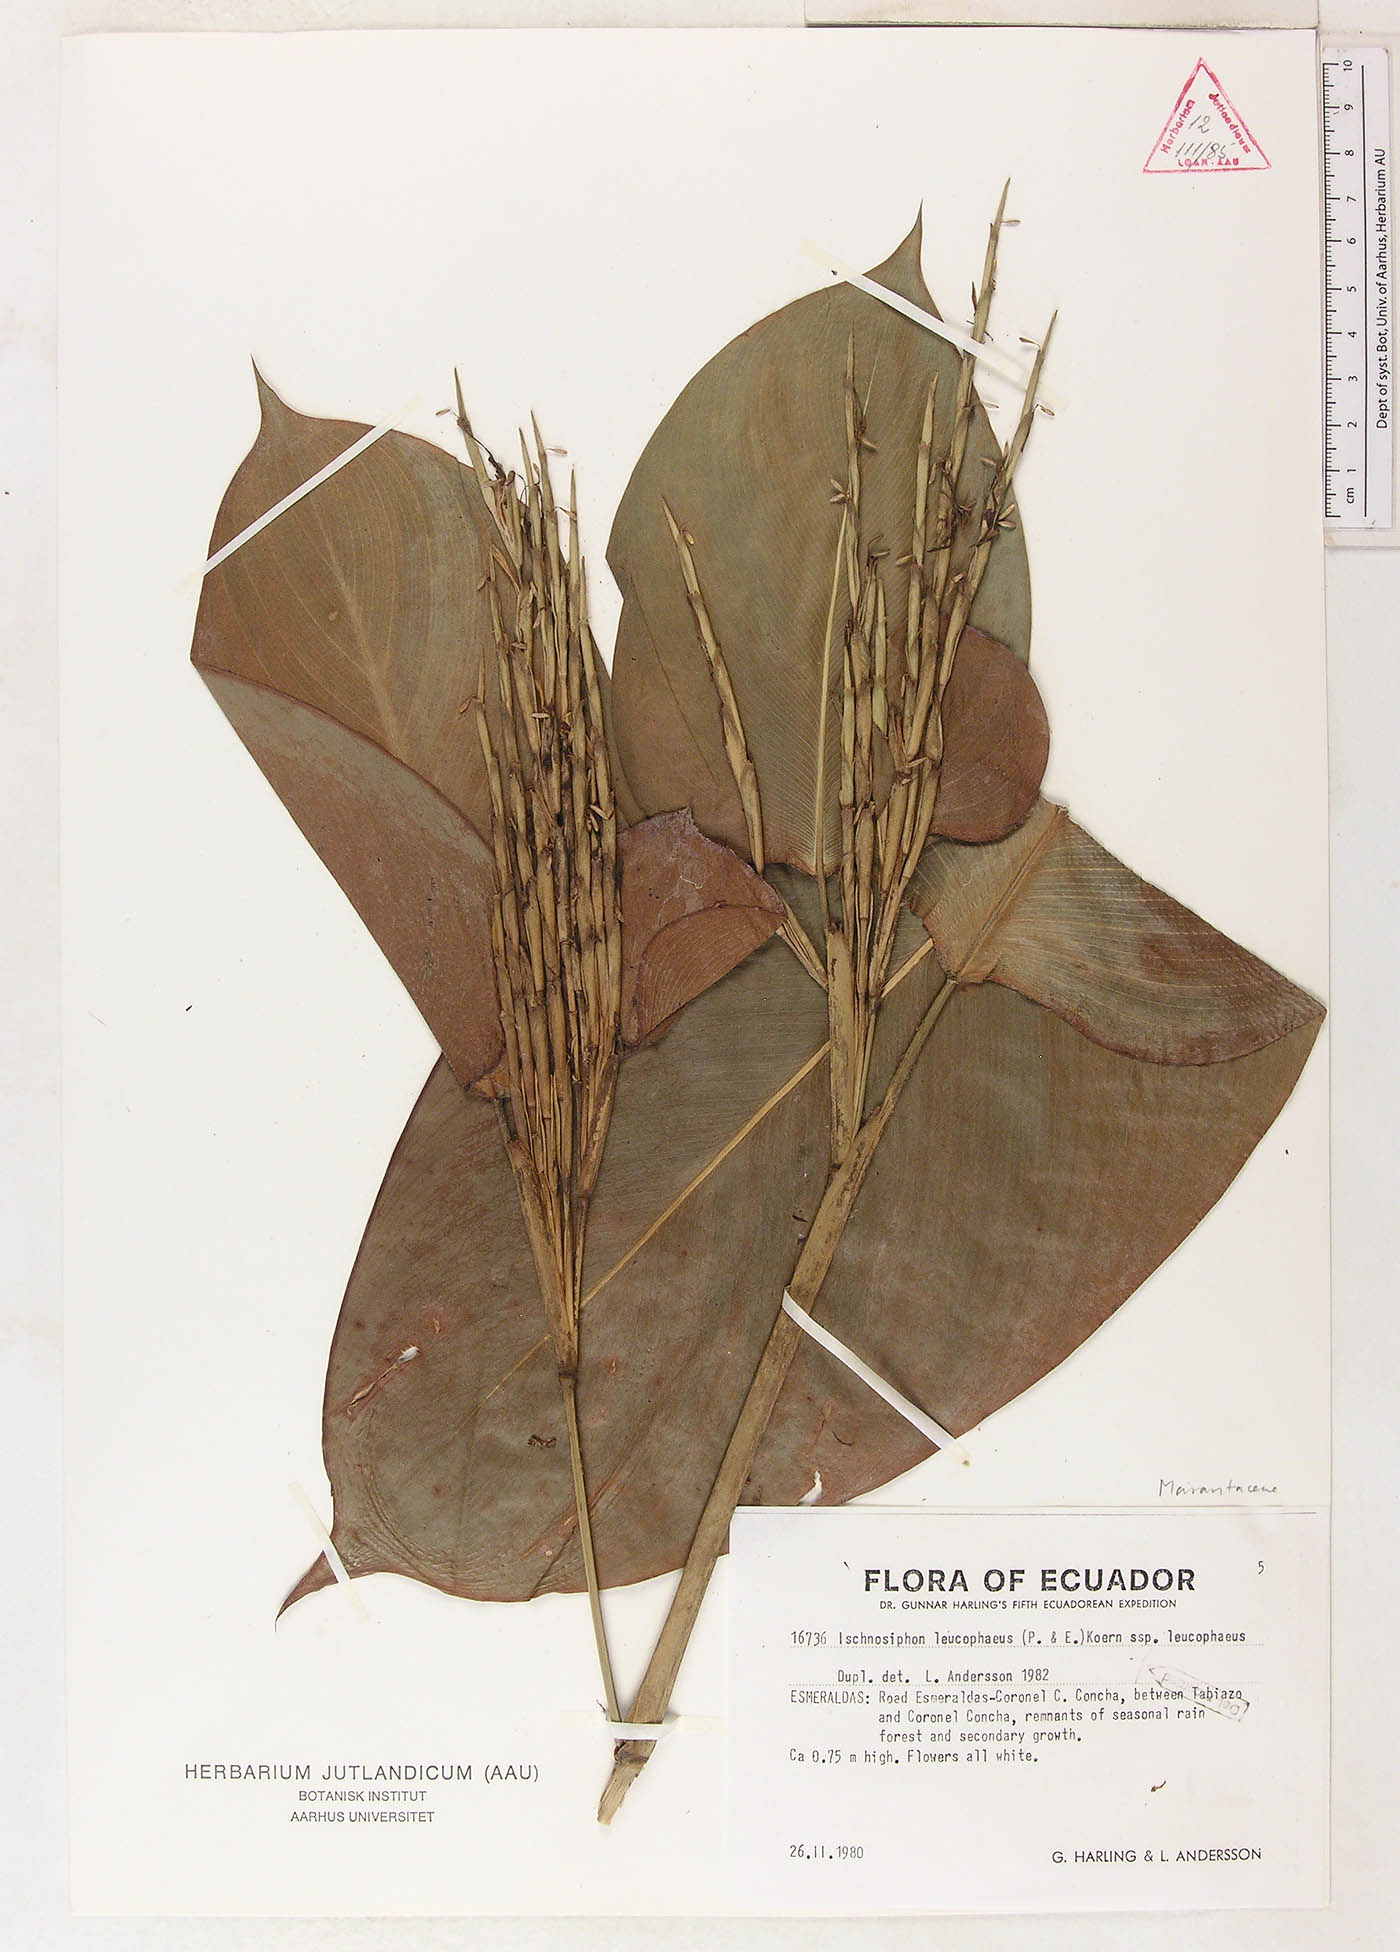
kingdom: Plantae
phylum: Tracheophyta
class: Liliopsida
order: Zingiberales
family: Marantaceae
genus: Ischnosiphon
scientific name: Ischnosiphon leucophaeus
